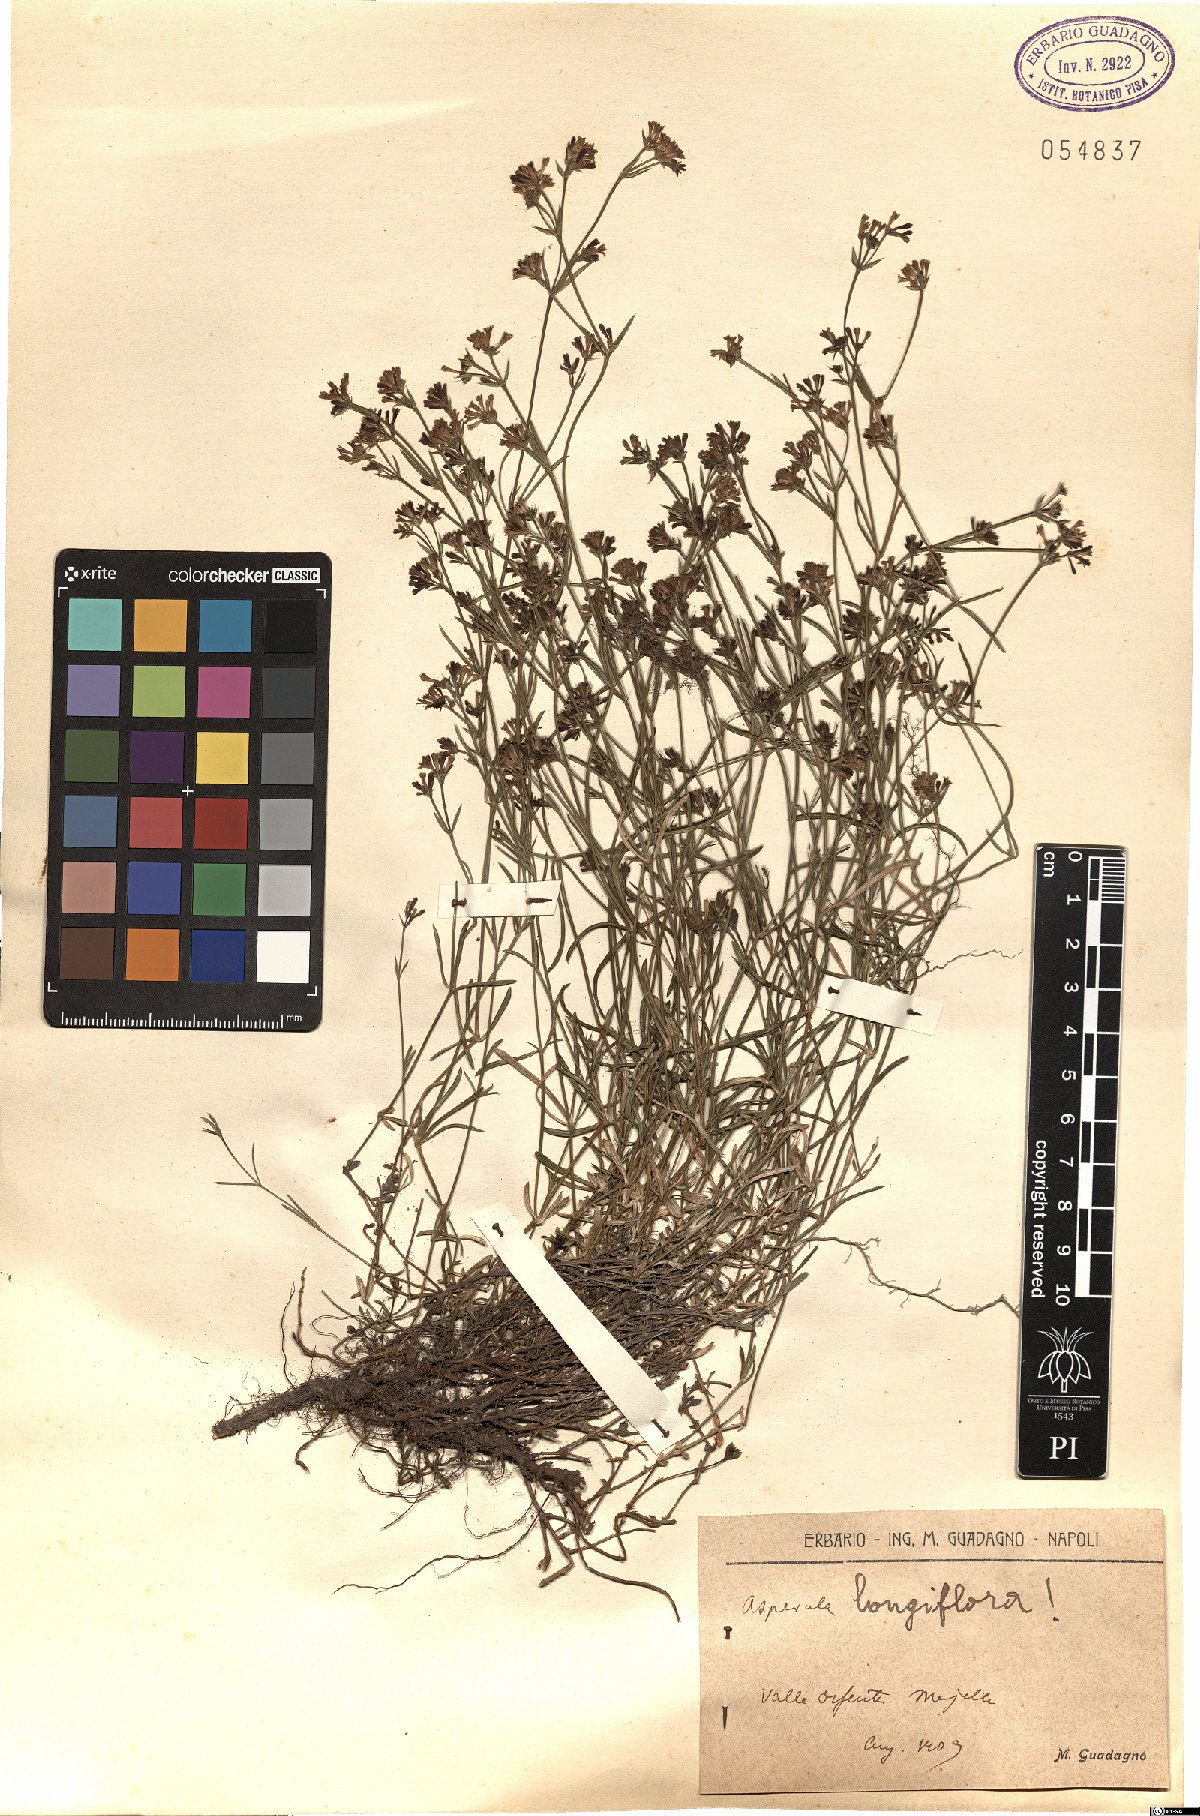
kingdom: Plantae
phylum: Tracheophyta
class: Magnoliopsida
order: Gentianales
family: Rubiaceae
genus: Cynanchica
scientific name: Cynanchica aristata
